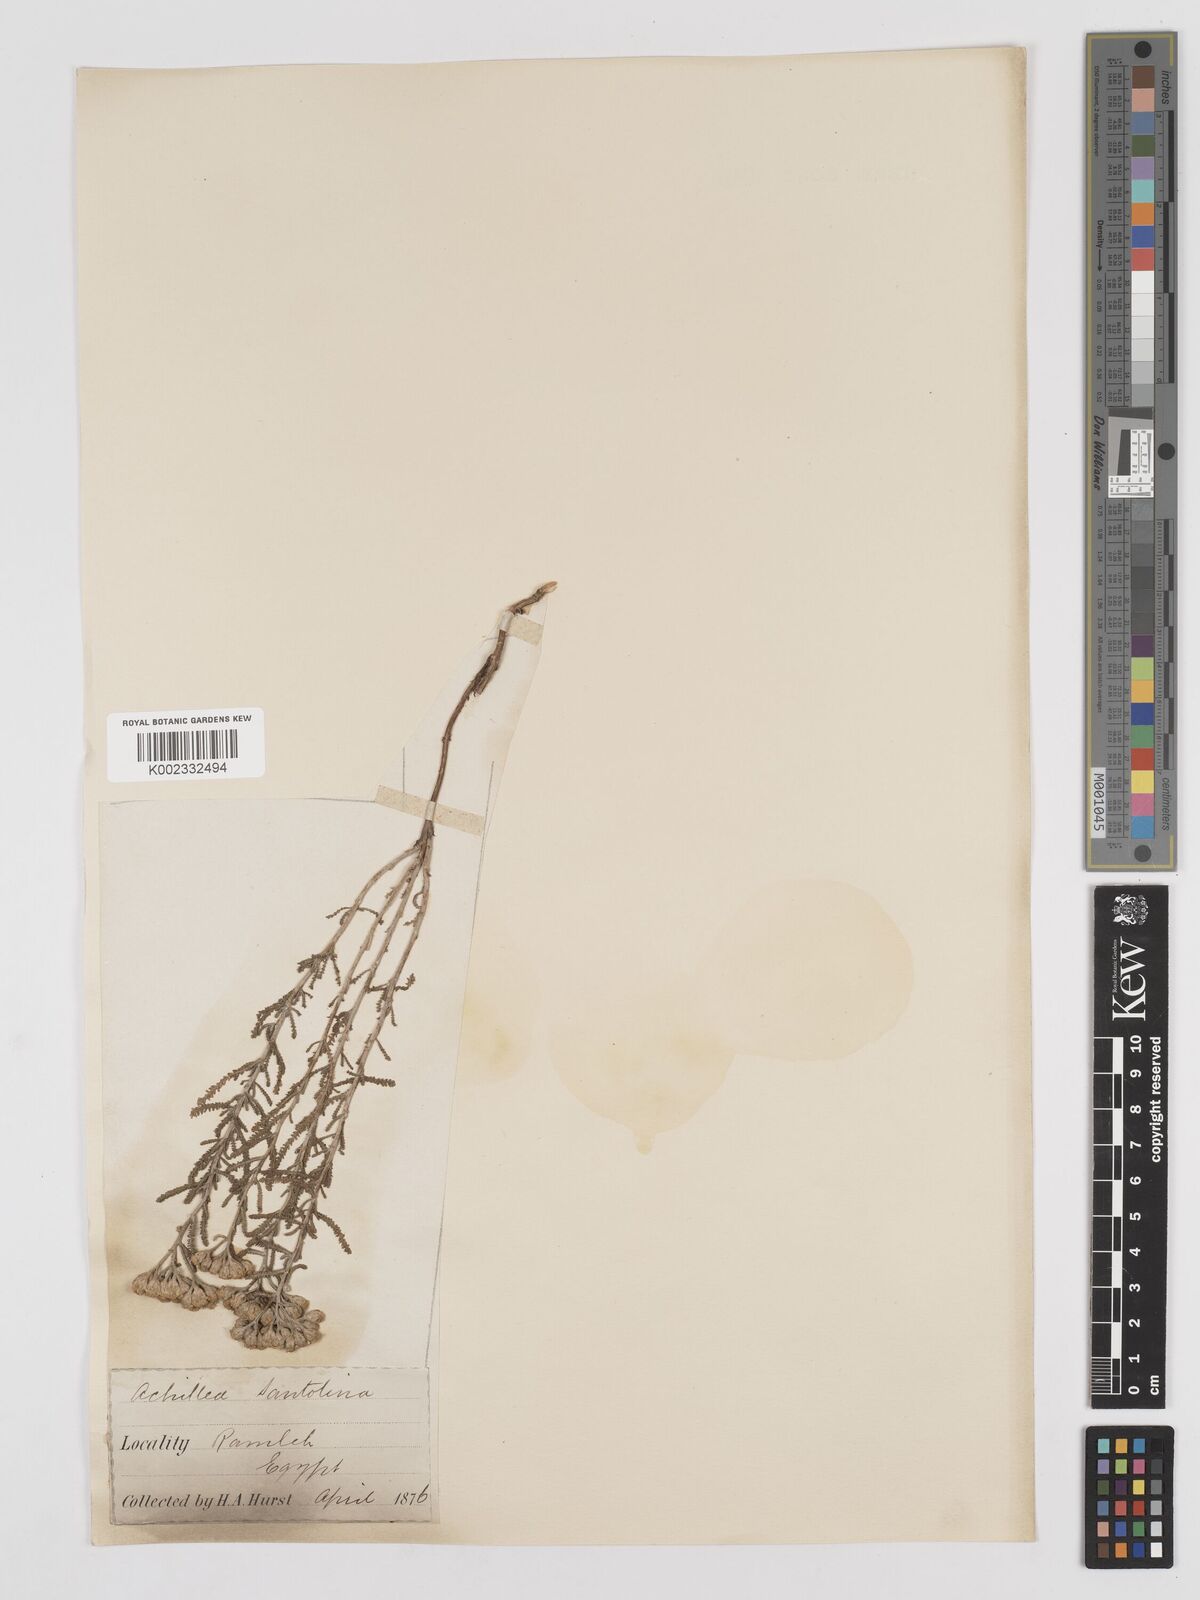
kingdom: Plantae
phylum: Tracheophyta
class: Magnoliopsida
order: Asterales
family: Asteraceae
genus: Achillea
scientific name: Achillea tenuifolia
